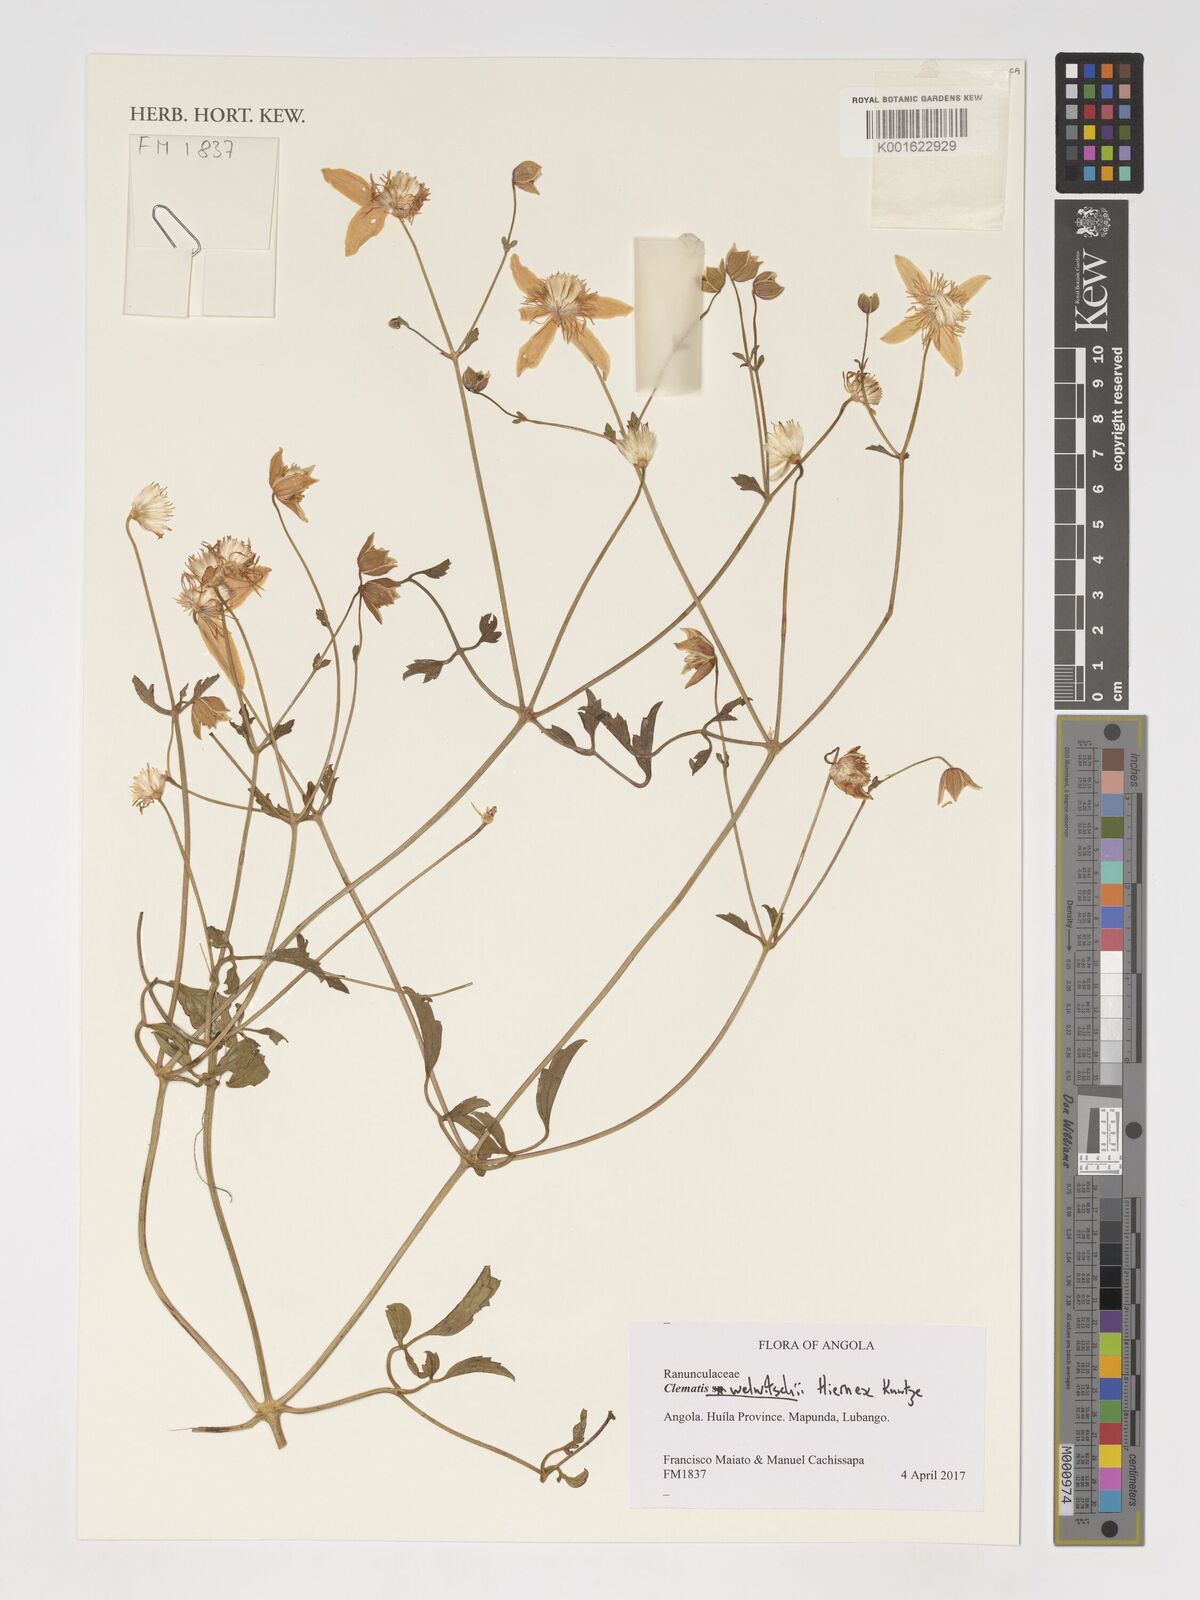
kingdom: Plantae
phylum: Tracheophyta
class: Magnoliopsida
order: Ranunculales
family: Ranunculaceae
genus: Clematis
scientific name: Clematis welwitschii
